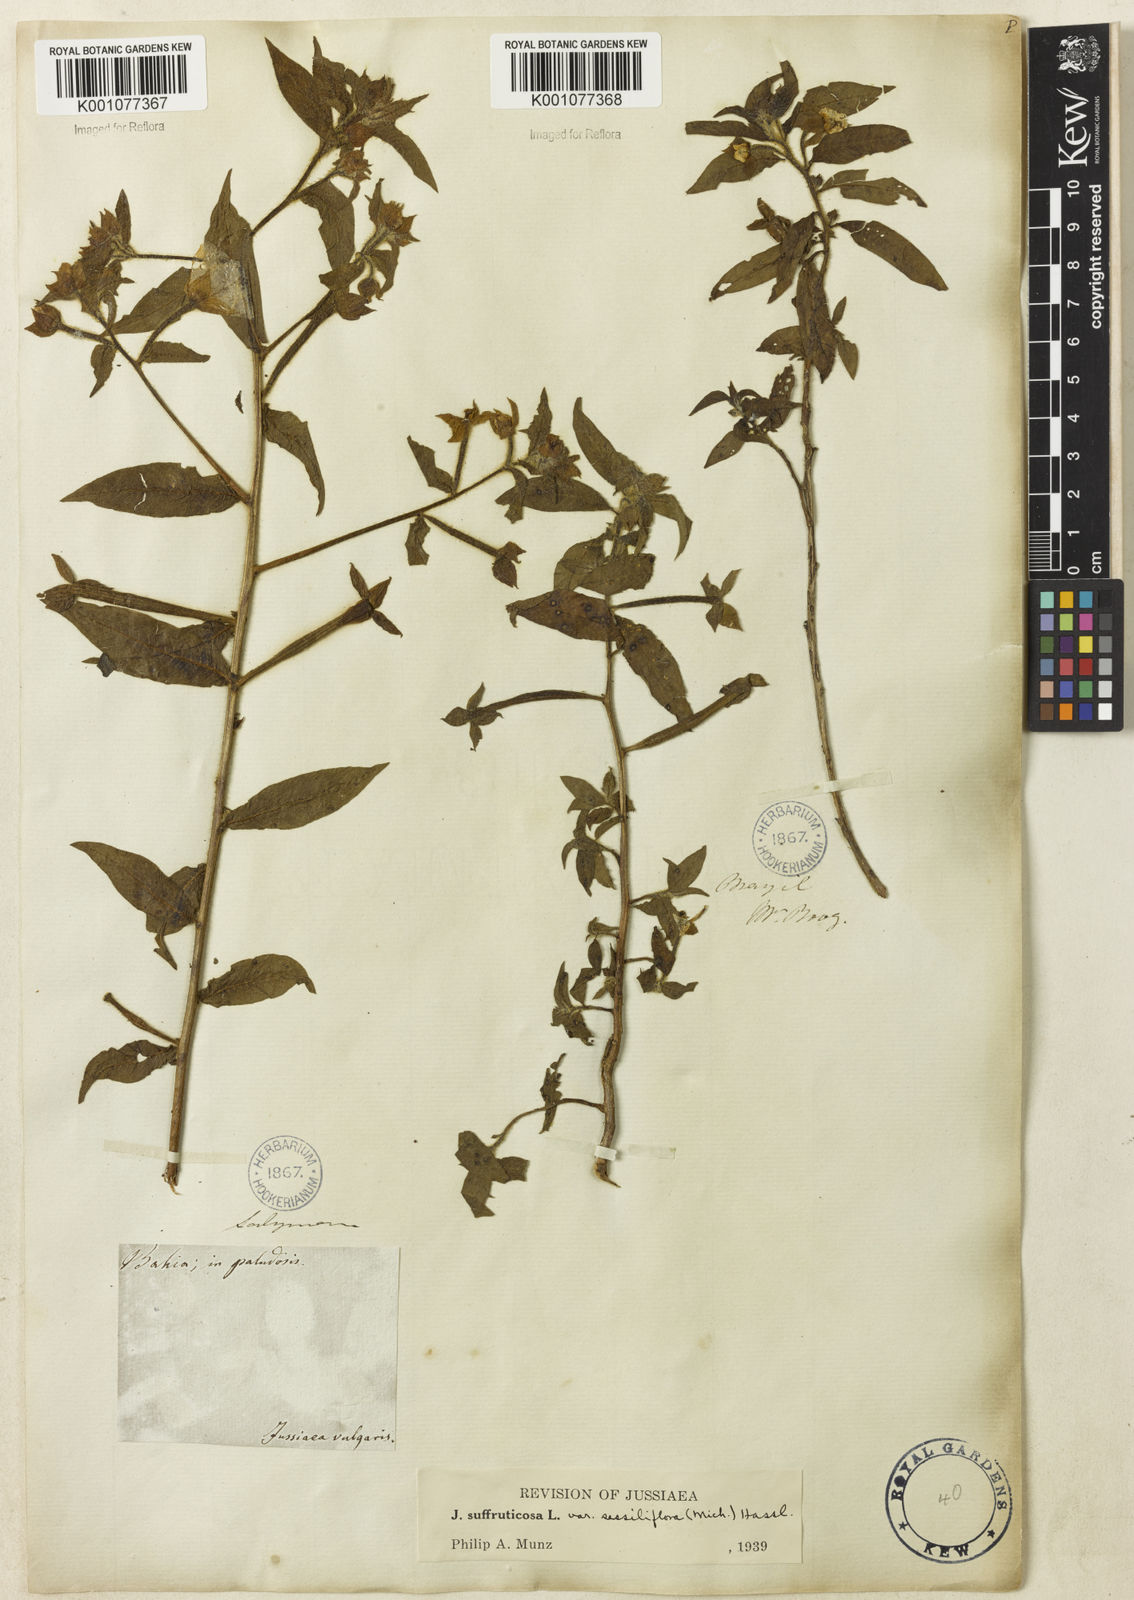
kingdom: Plantae
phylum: Tracheophyta
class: Magnoliopsida
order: Myrtales
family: Onagraceae
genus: Ludwigia
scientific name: Ludwigia octovalvis
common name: Water-primrose
